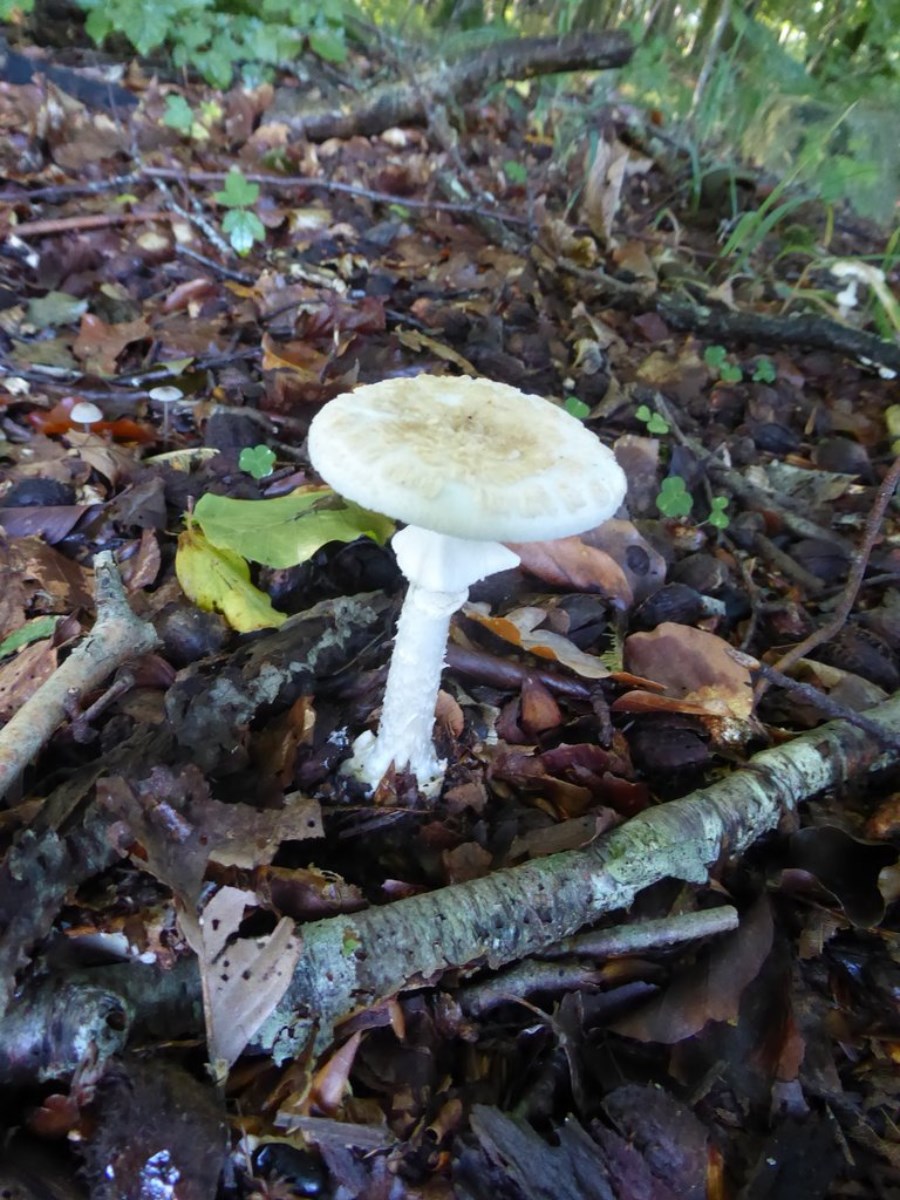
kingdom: Fungi
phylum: Basidiomycota
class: Agaricomycetes
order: Agaricales
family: Amanitaceae
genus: Amanita
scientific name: Amanita citrina
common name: False death-cap
